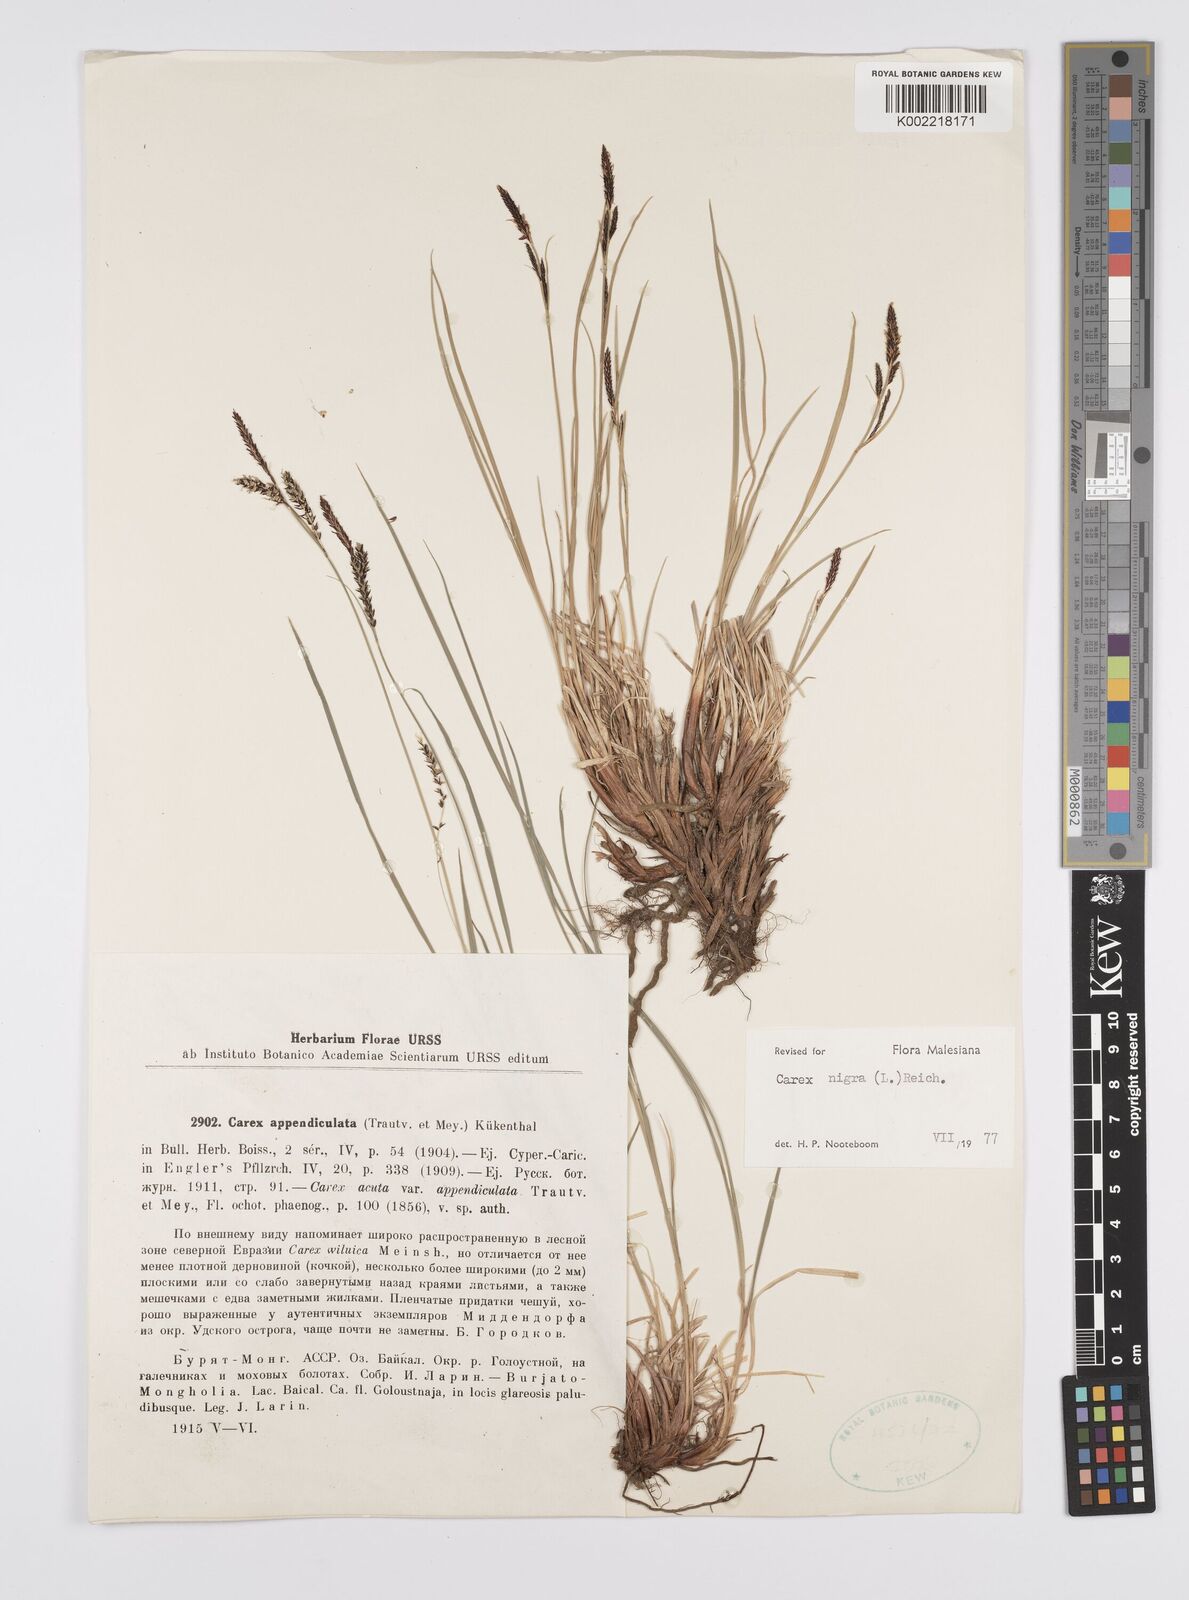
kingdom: Plantae
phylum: Tracheophyta
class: Liliopsida
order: Poales
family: Cyperaceae
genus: Carex
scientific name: Carex nigra
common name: Common sedge
